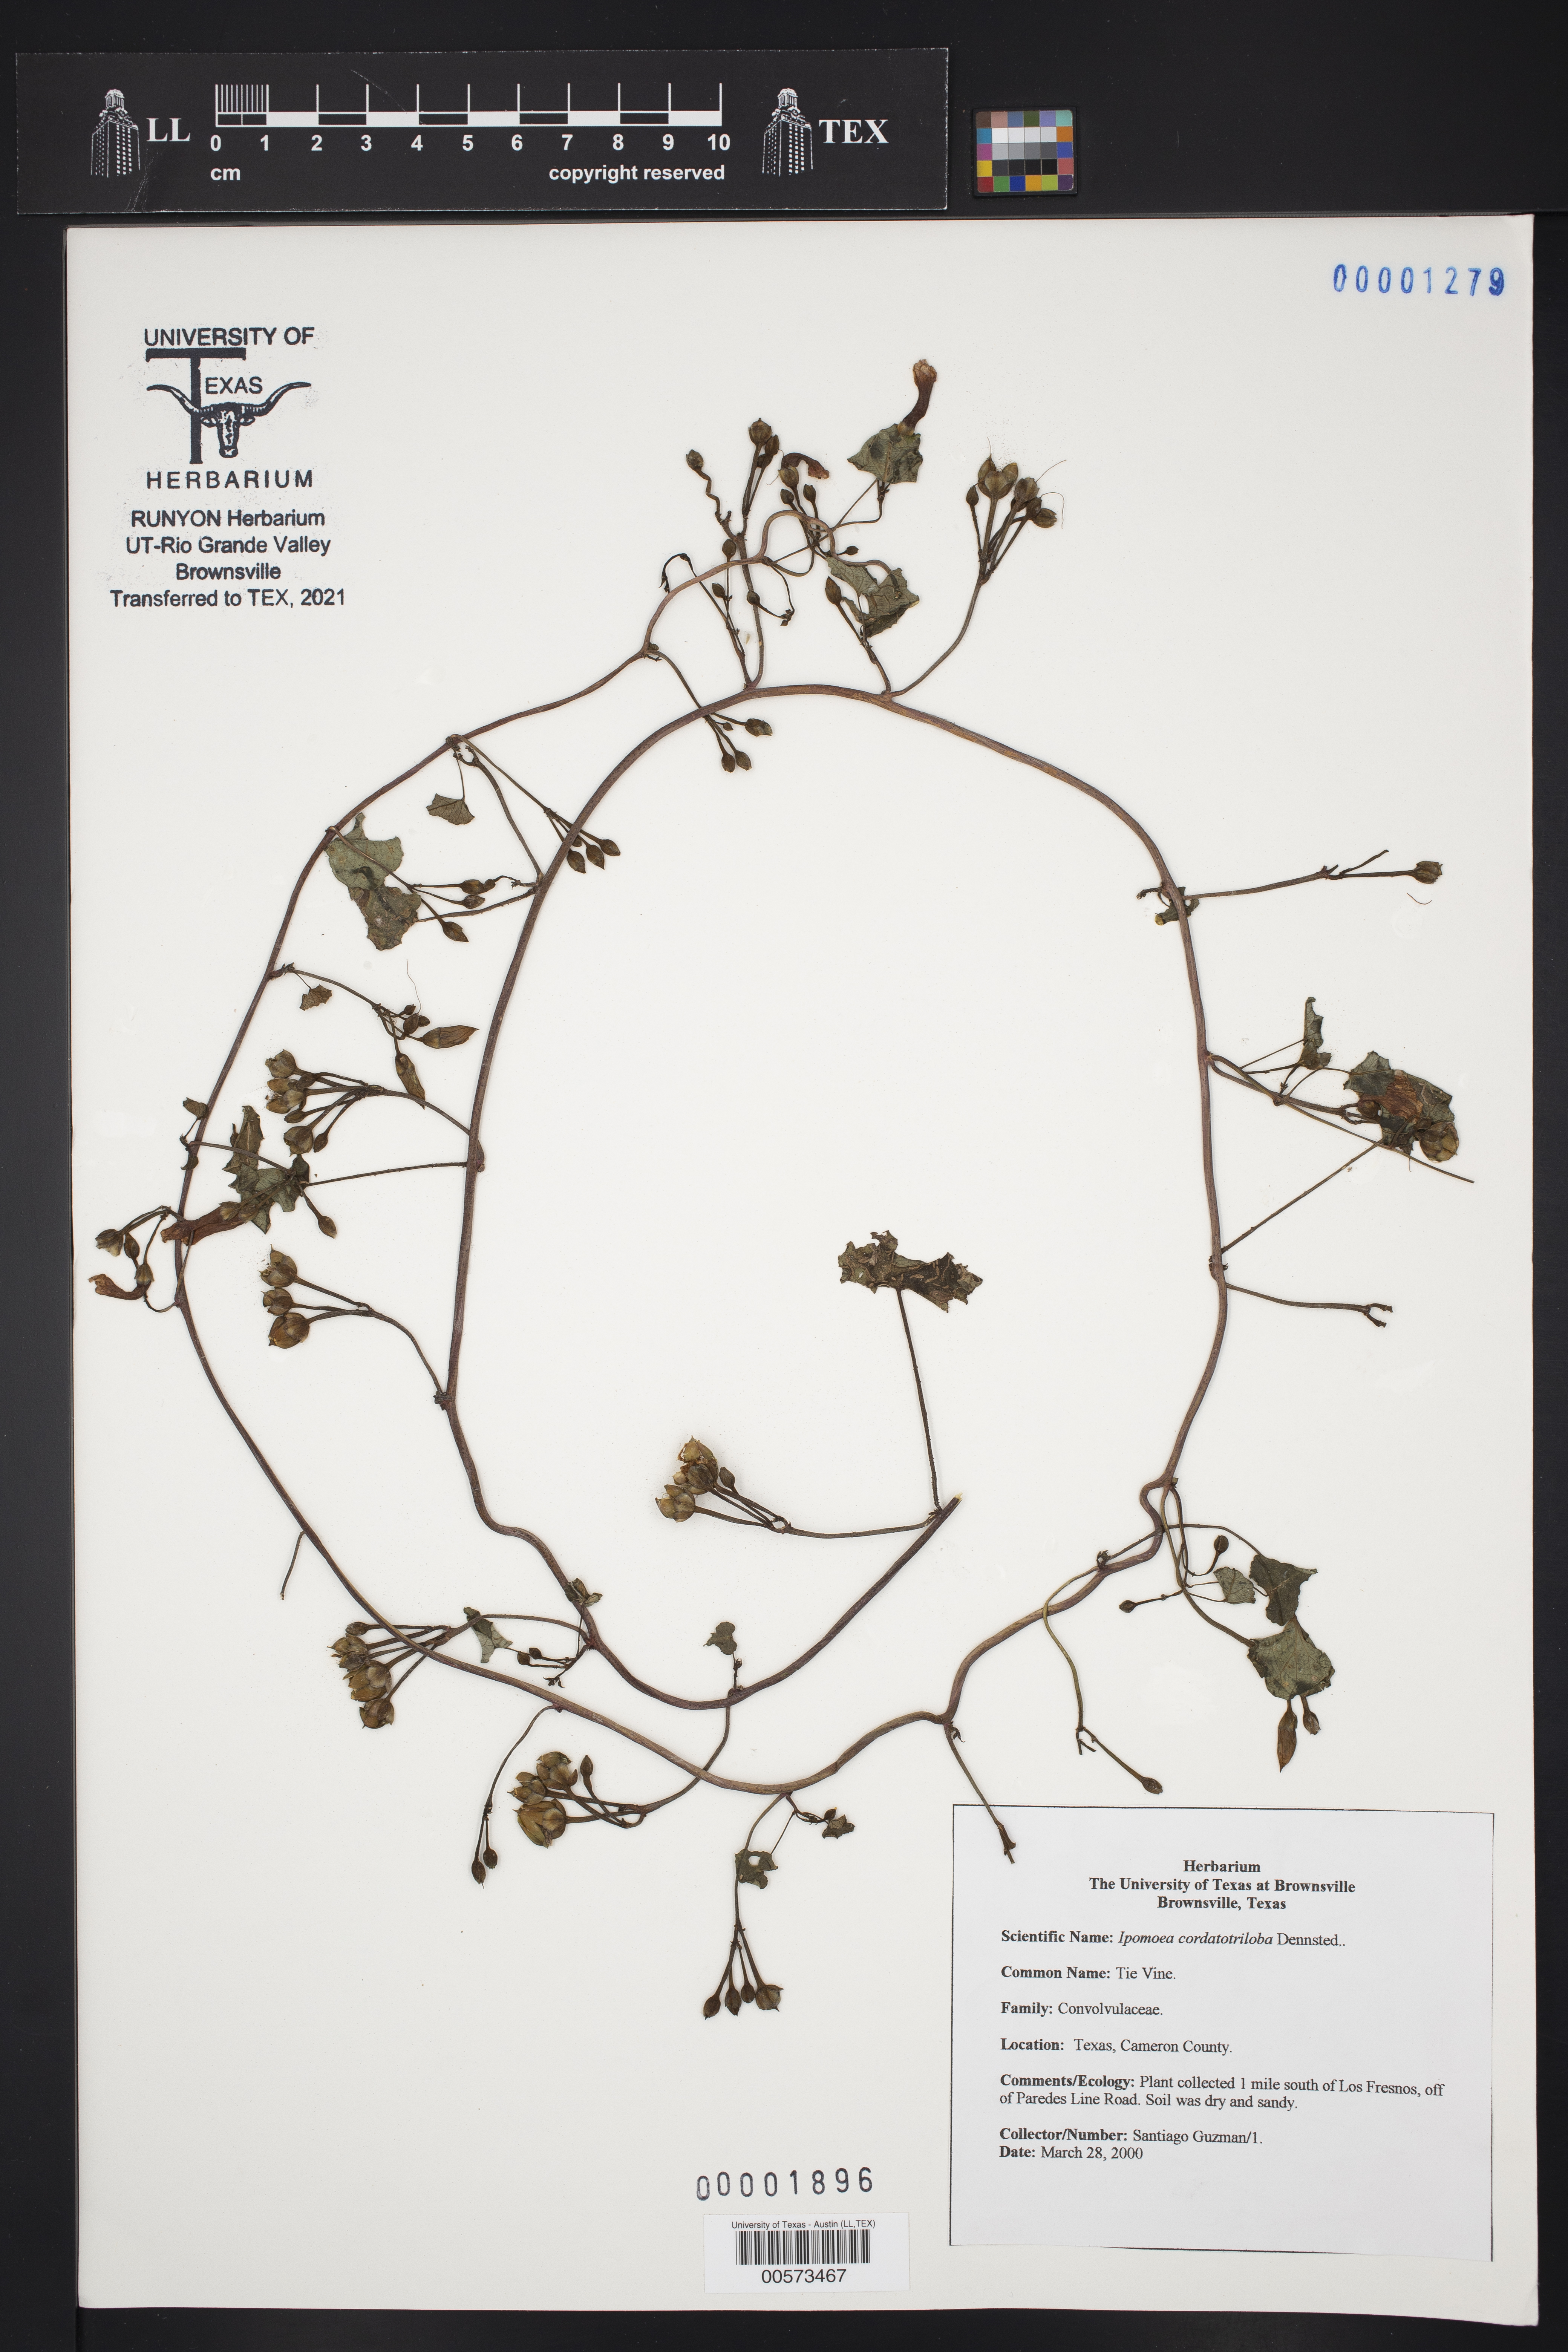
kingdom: Plantae
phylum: Tracheophyta
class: Magnoliopsida
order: Solanales
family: Convolvulaceae
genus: Ipomoea
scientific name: Ipomoea cordatotriloba
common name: Cotton morning glory
